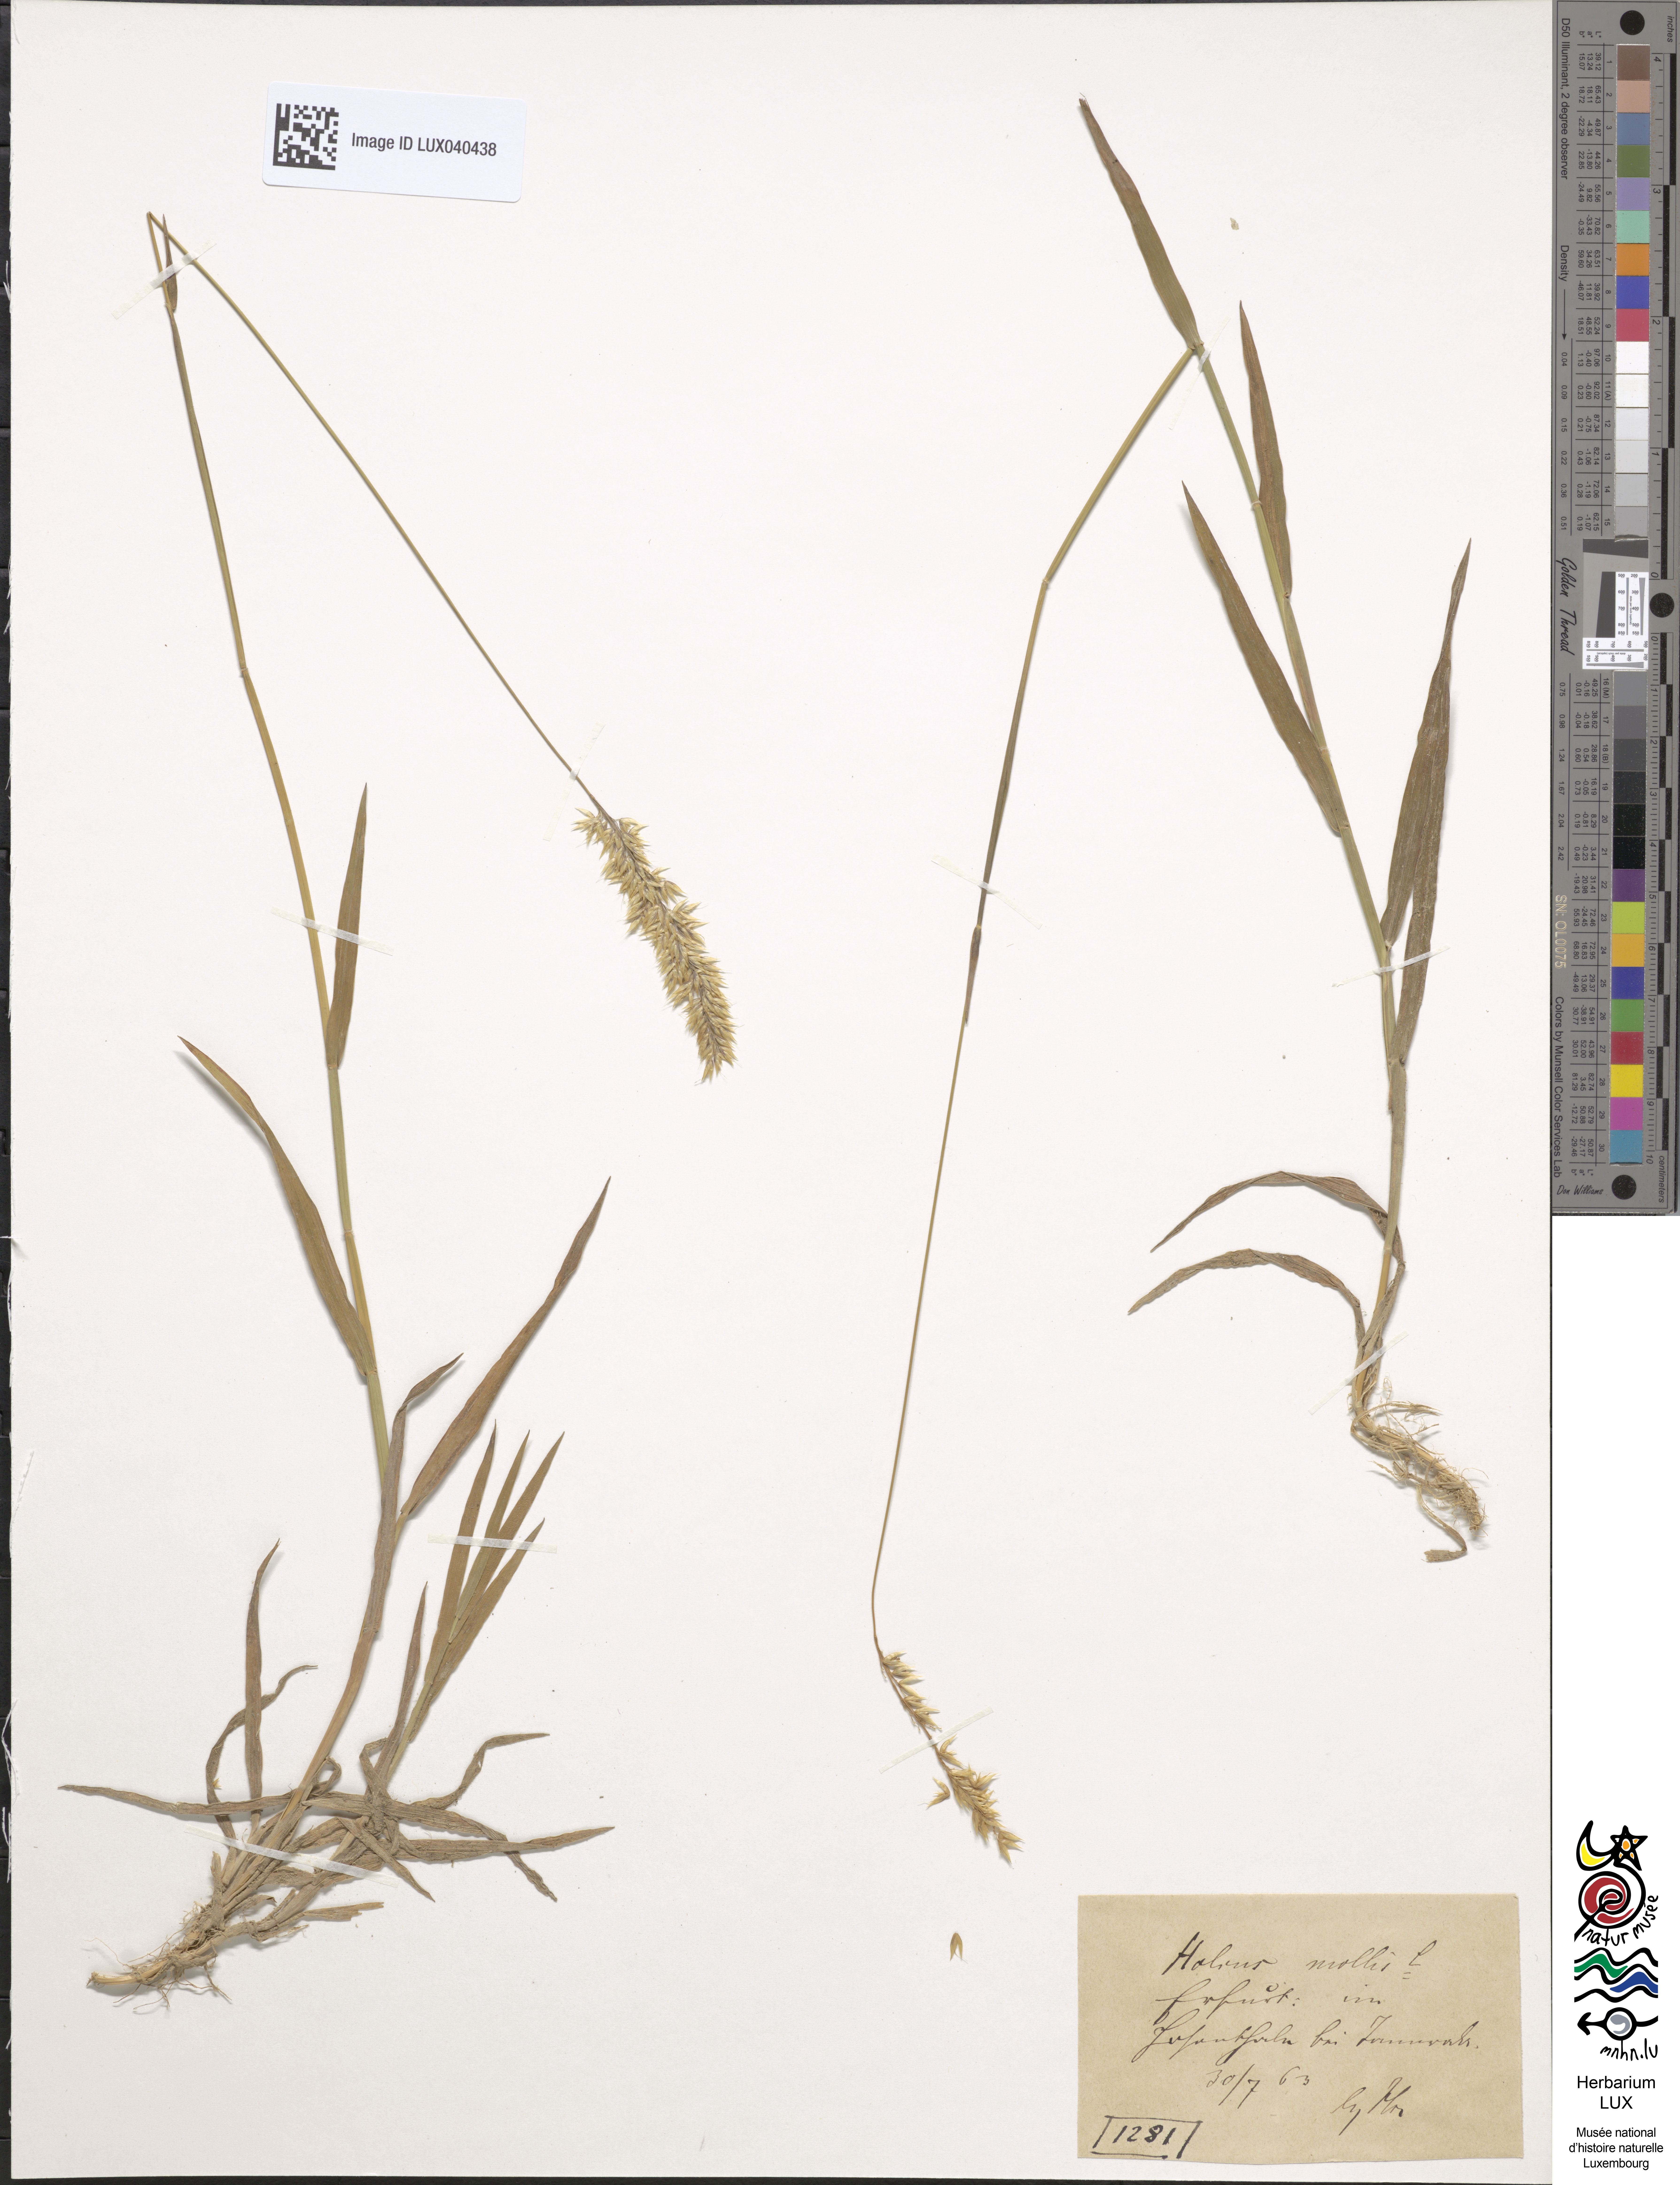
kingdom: Plantae
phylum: Tracheophyta
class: Liliopsida
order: Poales
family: Poaceae
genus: Holcus
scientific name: Holcus mollis
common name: Creeping velvetgrass
